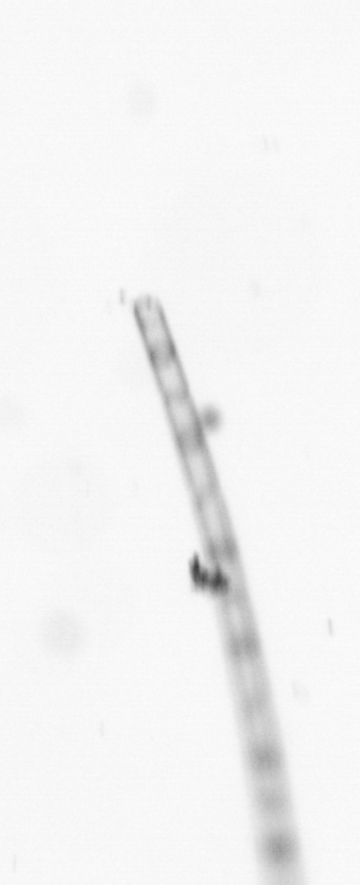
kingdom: Chromista
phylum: Ochrophyta
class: Bacillariophyceae
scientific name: Bacillariophyceae
